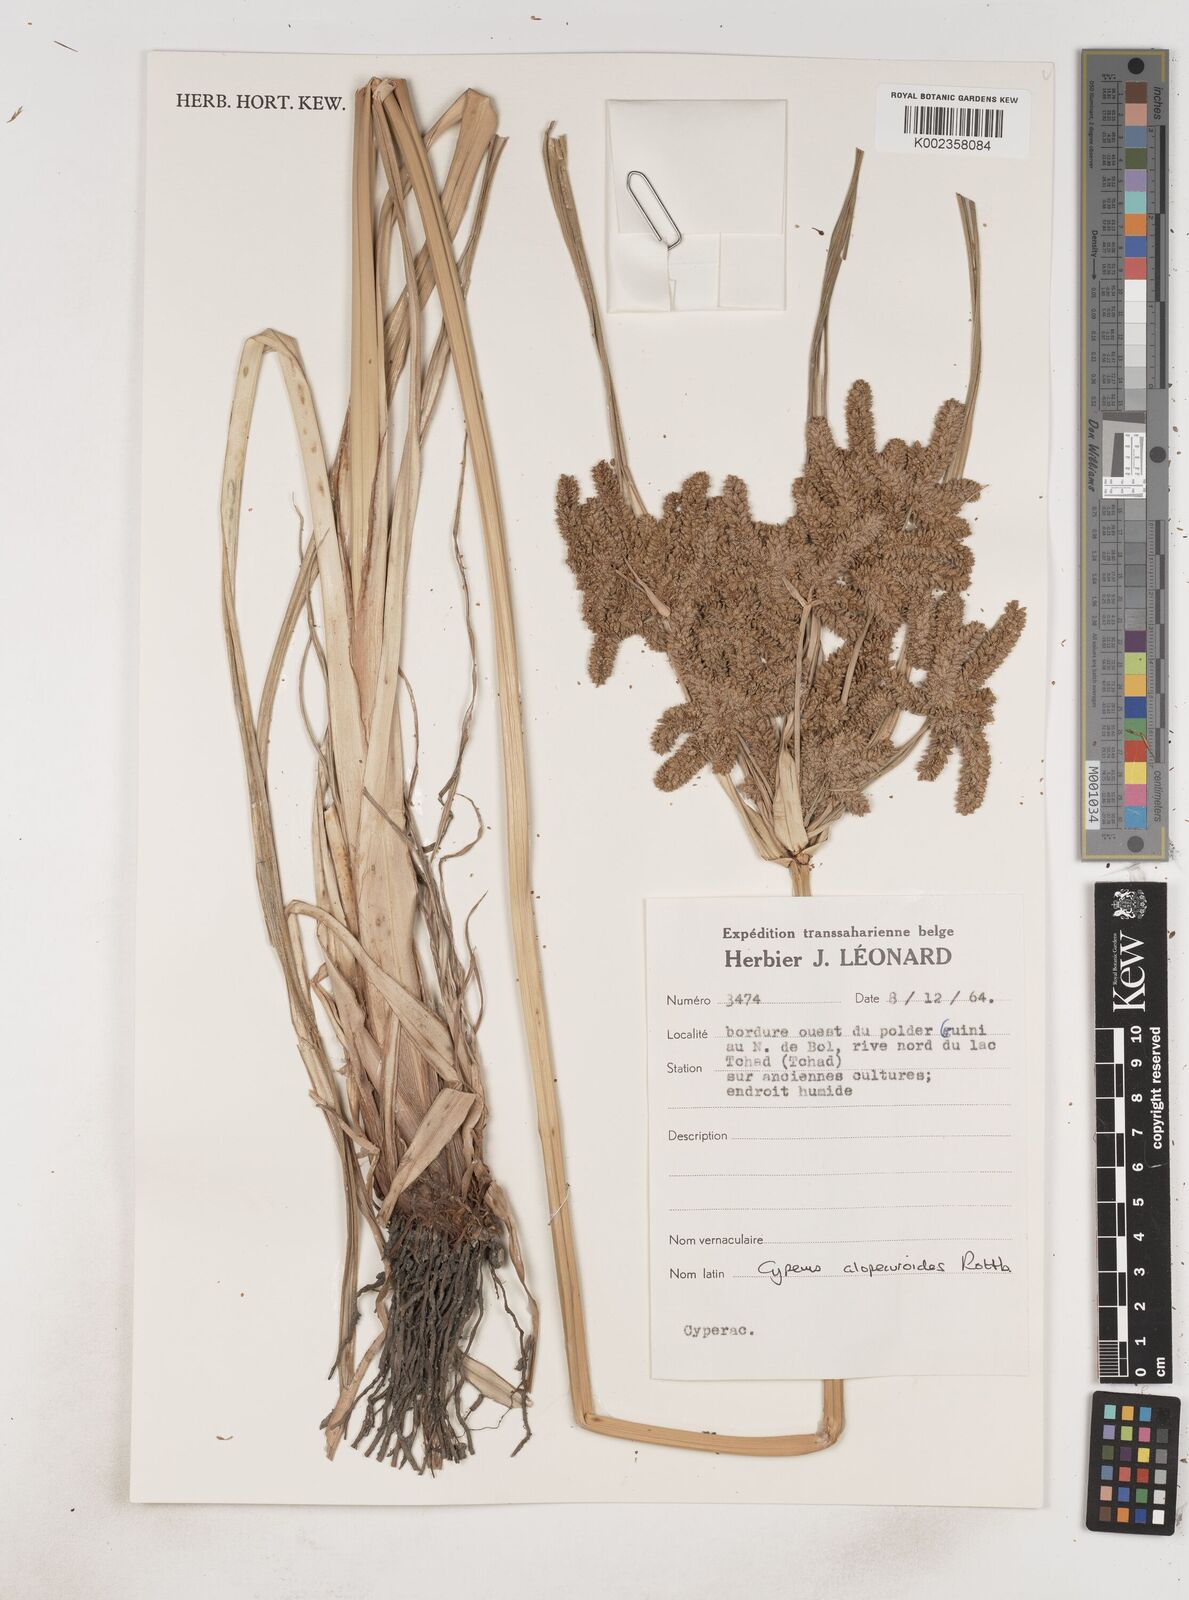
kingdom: Plantae
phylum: Tracheophyta
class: Liliopsida
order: Poales
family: Cyperaceae
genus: Cyperus
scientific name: Cyperus alopecuroides
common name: Foxtail flatsedge
